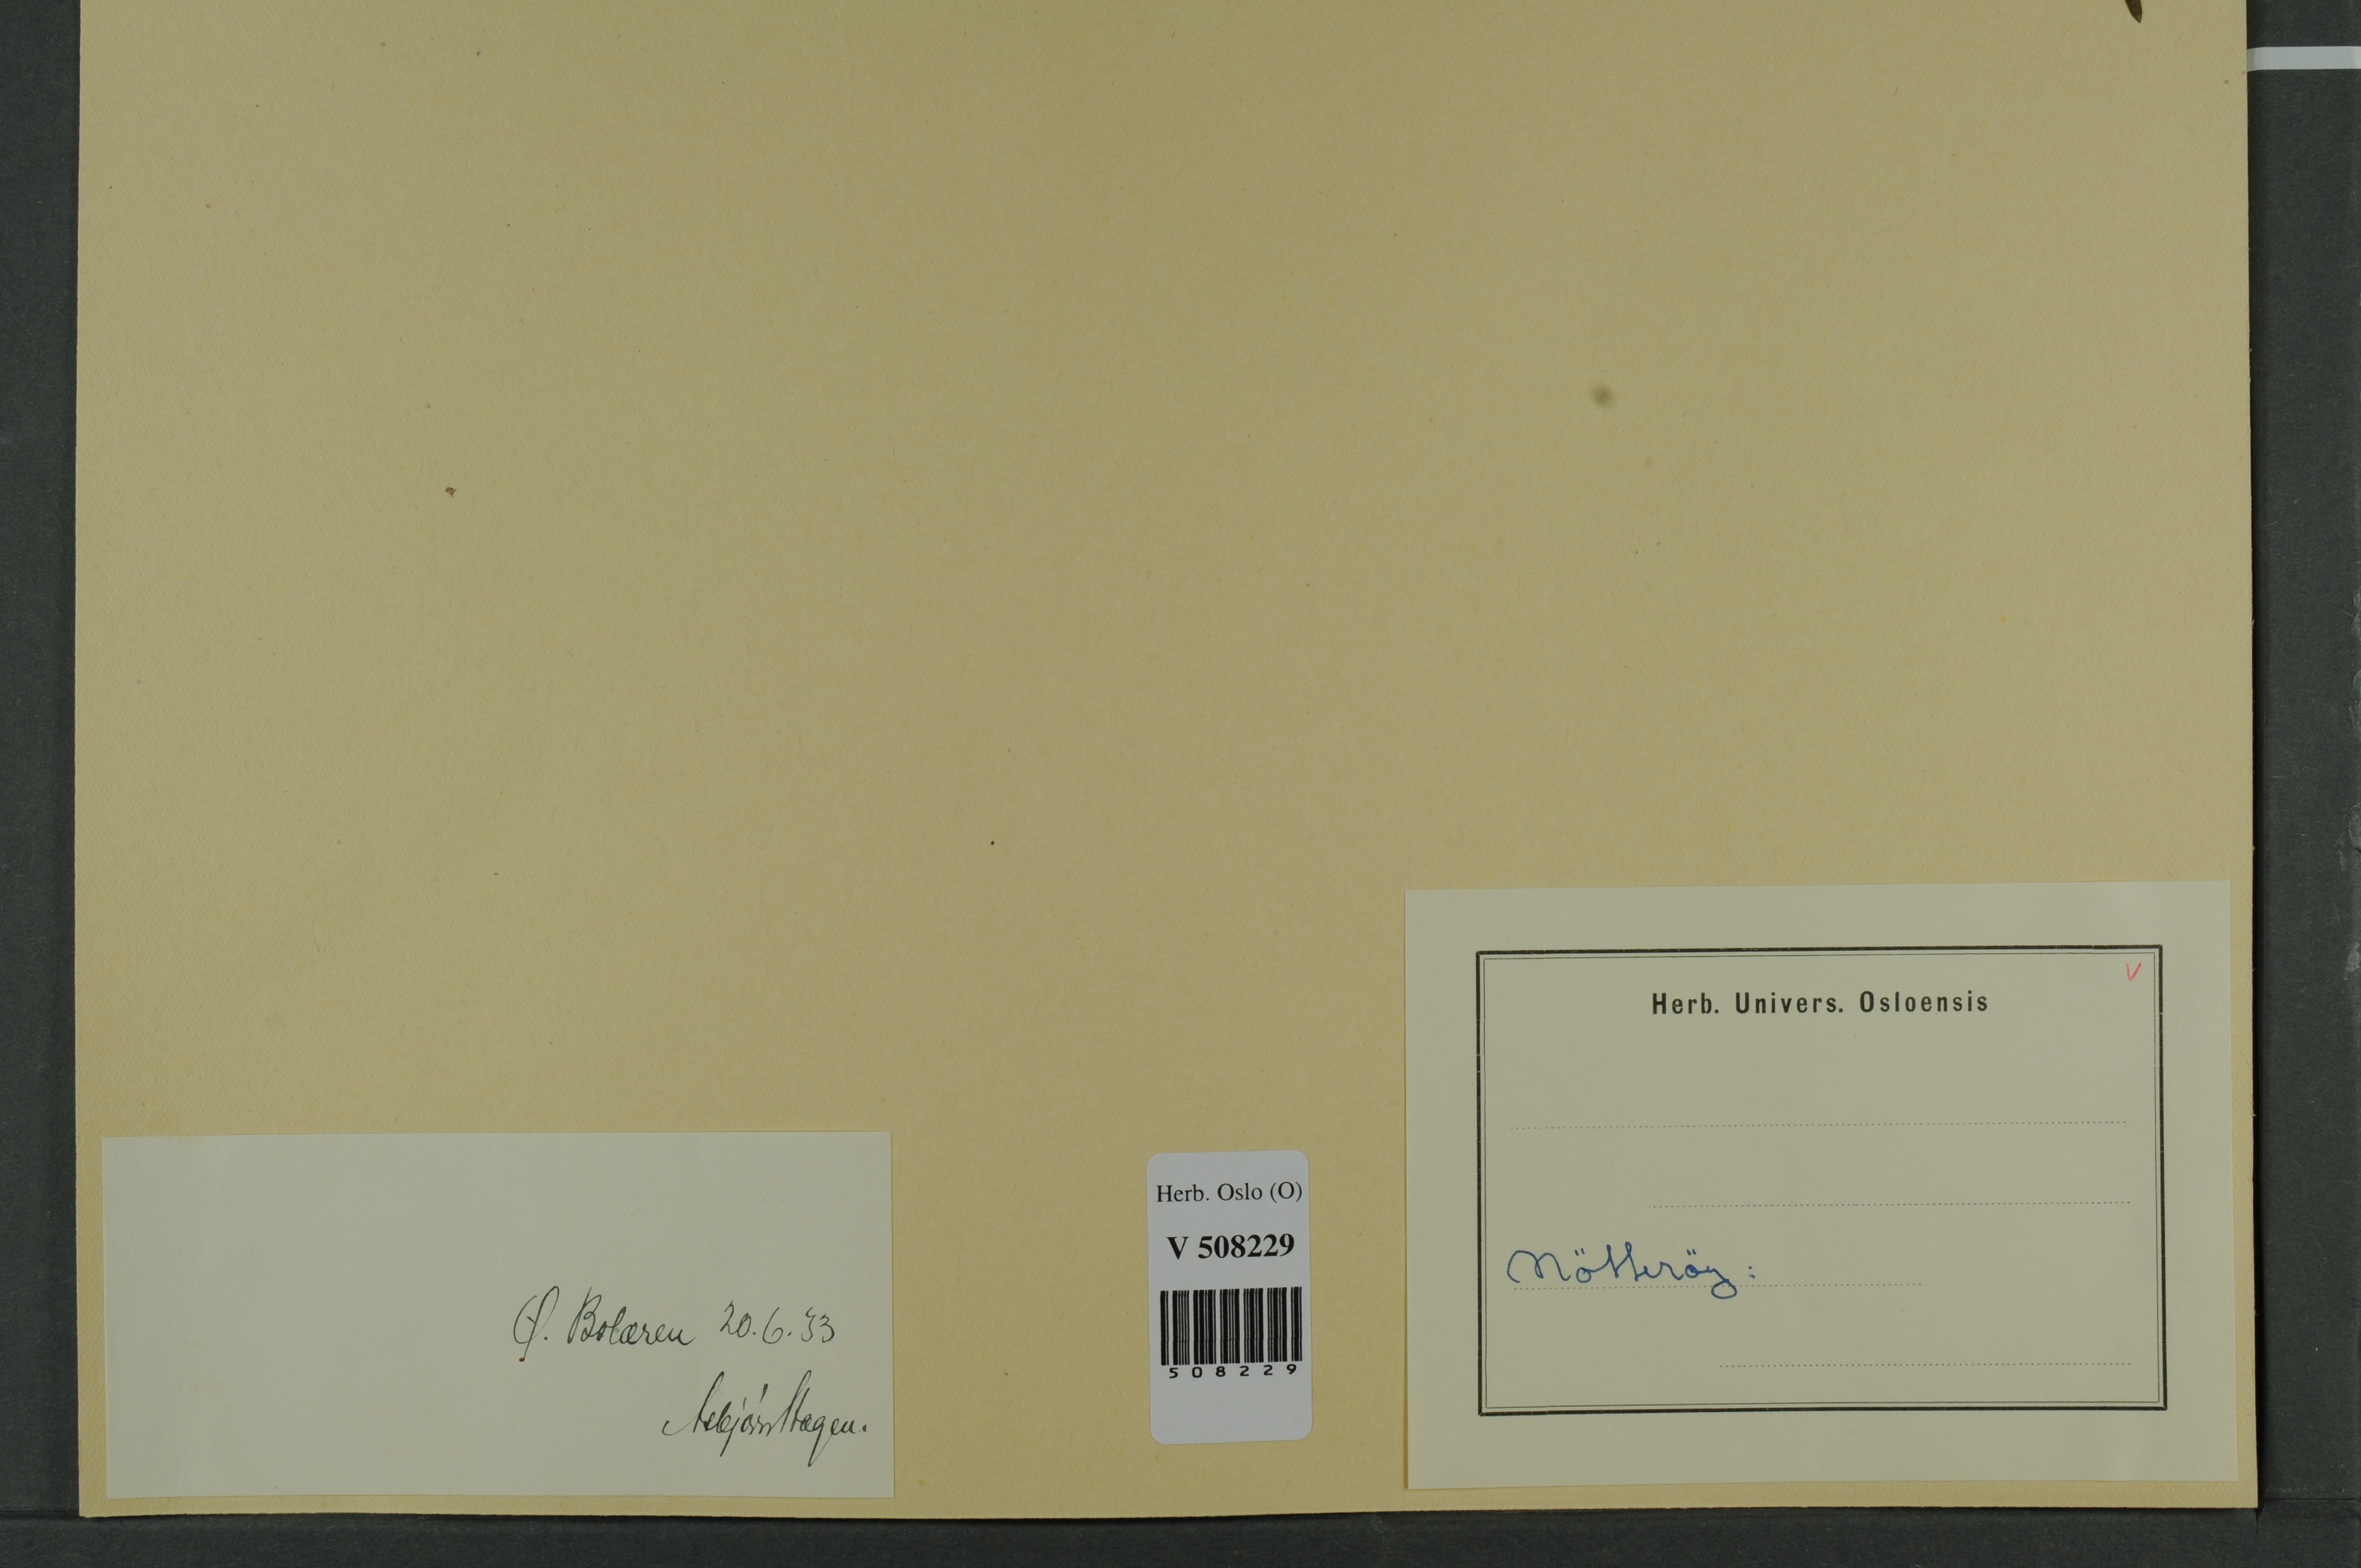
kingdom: Plantae
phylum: Tracheophyta
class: Pinopsida
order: Pinales
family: Taxaceae
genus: Taxus
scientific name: Taxus baccata
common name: Yew
